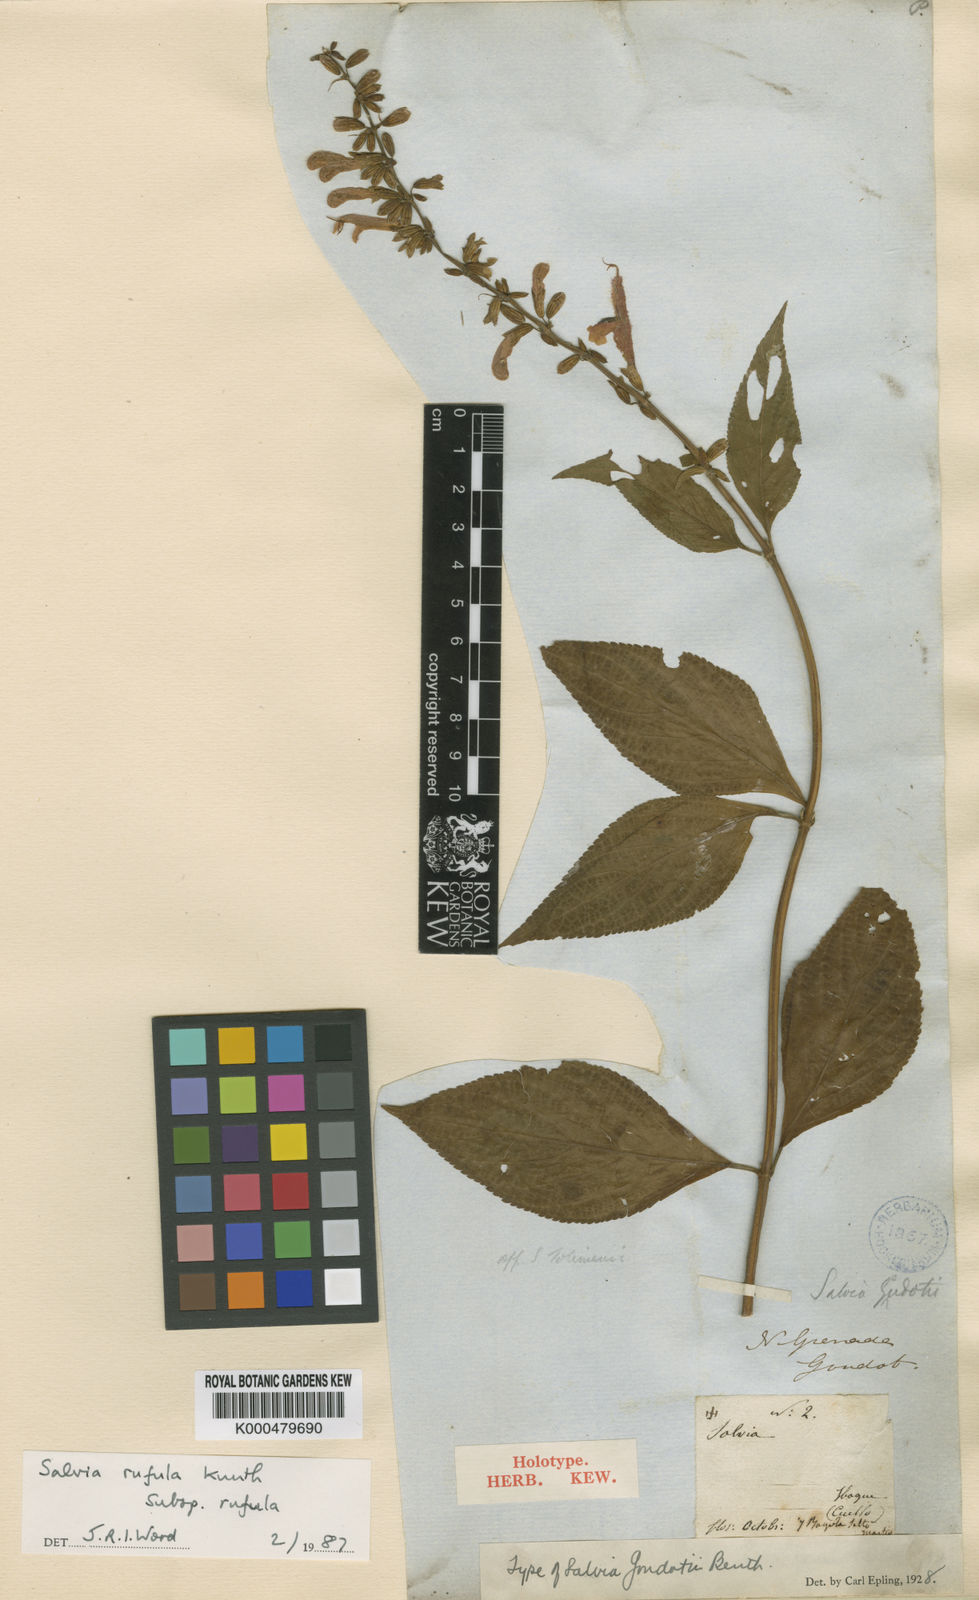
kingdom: Plantae
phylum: Tracheophyta
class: Magnoliopsida
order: Lamiales
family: Lamiaceae
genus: Salvia
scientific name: Salvia rufula
